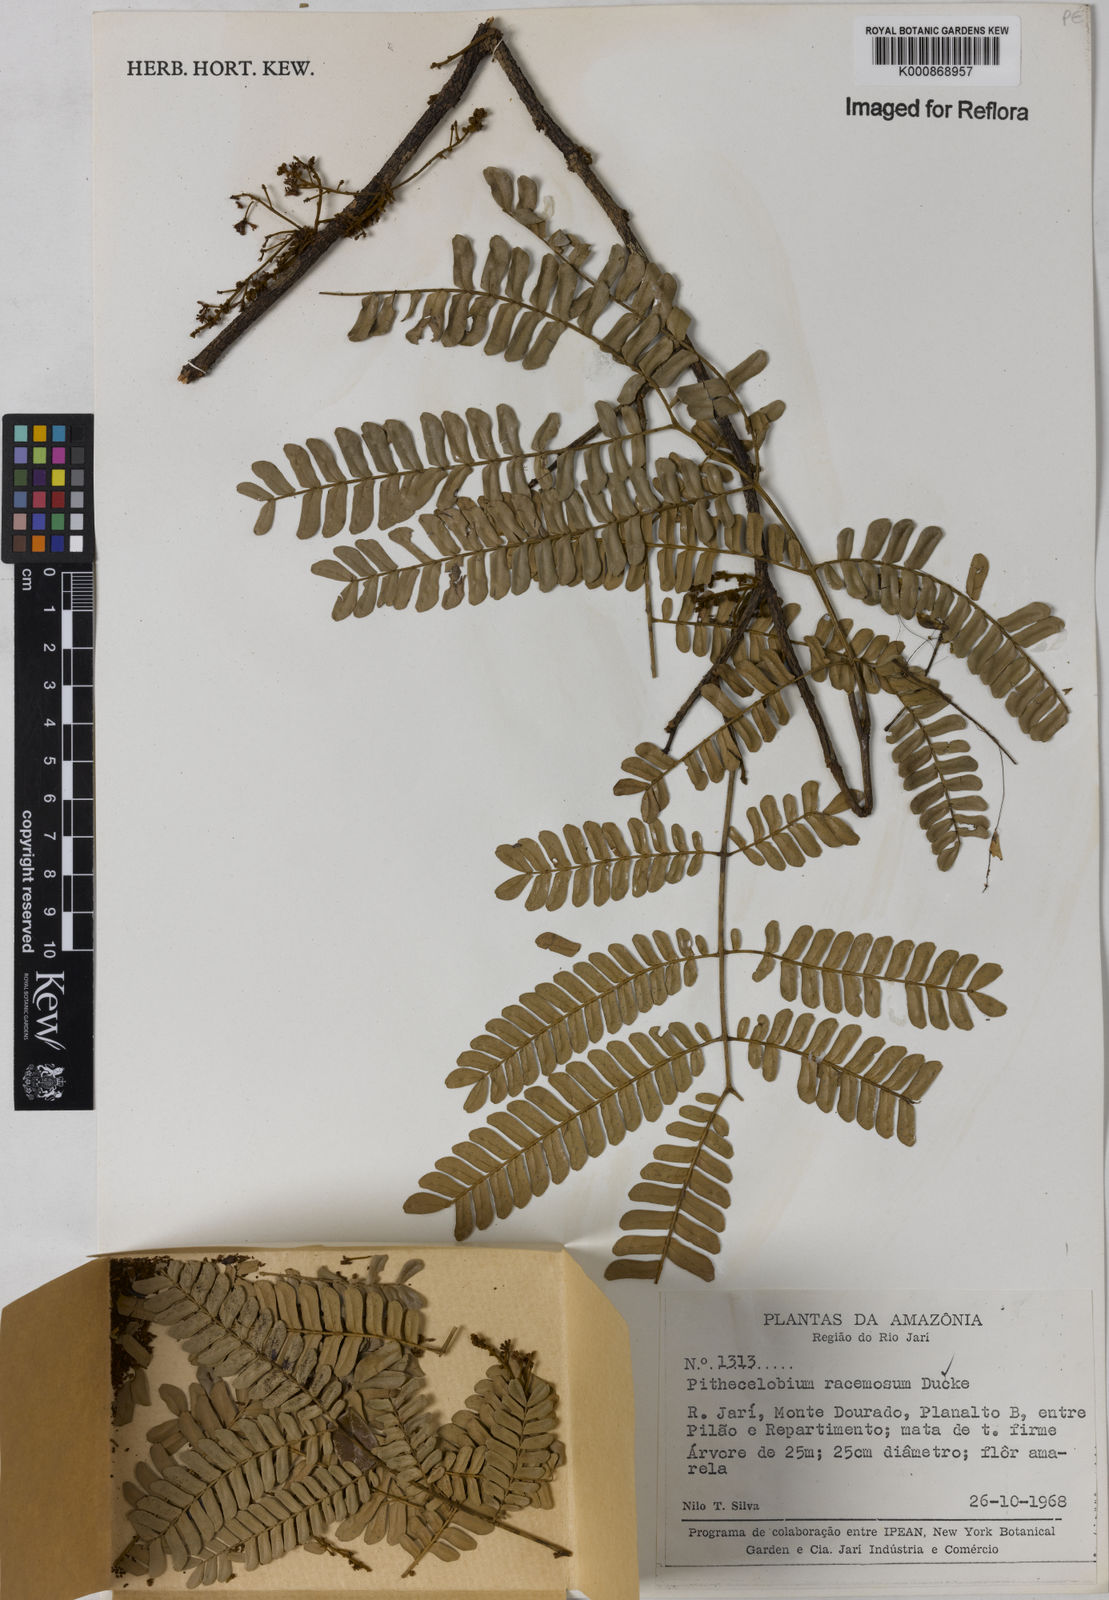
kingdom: Plantae
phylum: Tracheophyta
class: Magnoliopsida
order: Fabales
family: Fabaceae
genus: Marmaroxylon
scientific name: Marmaroxylon
